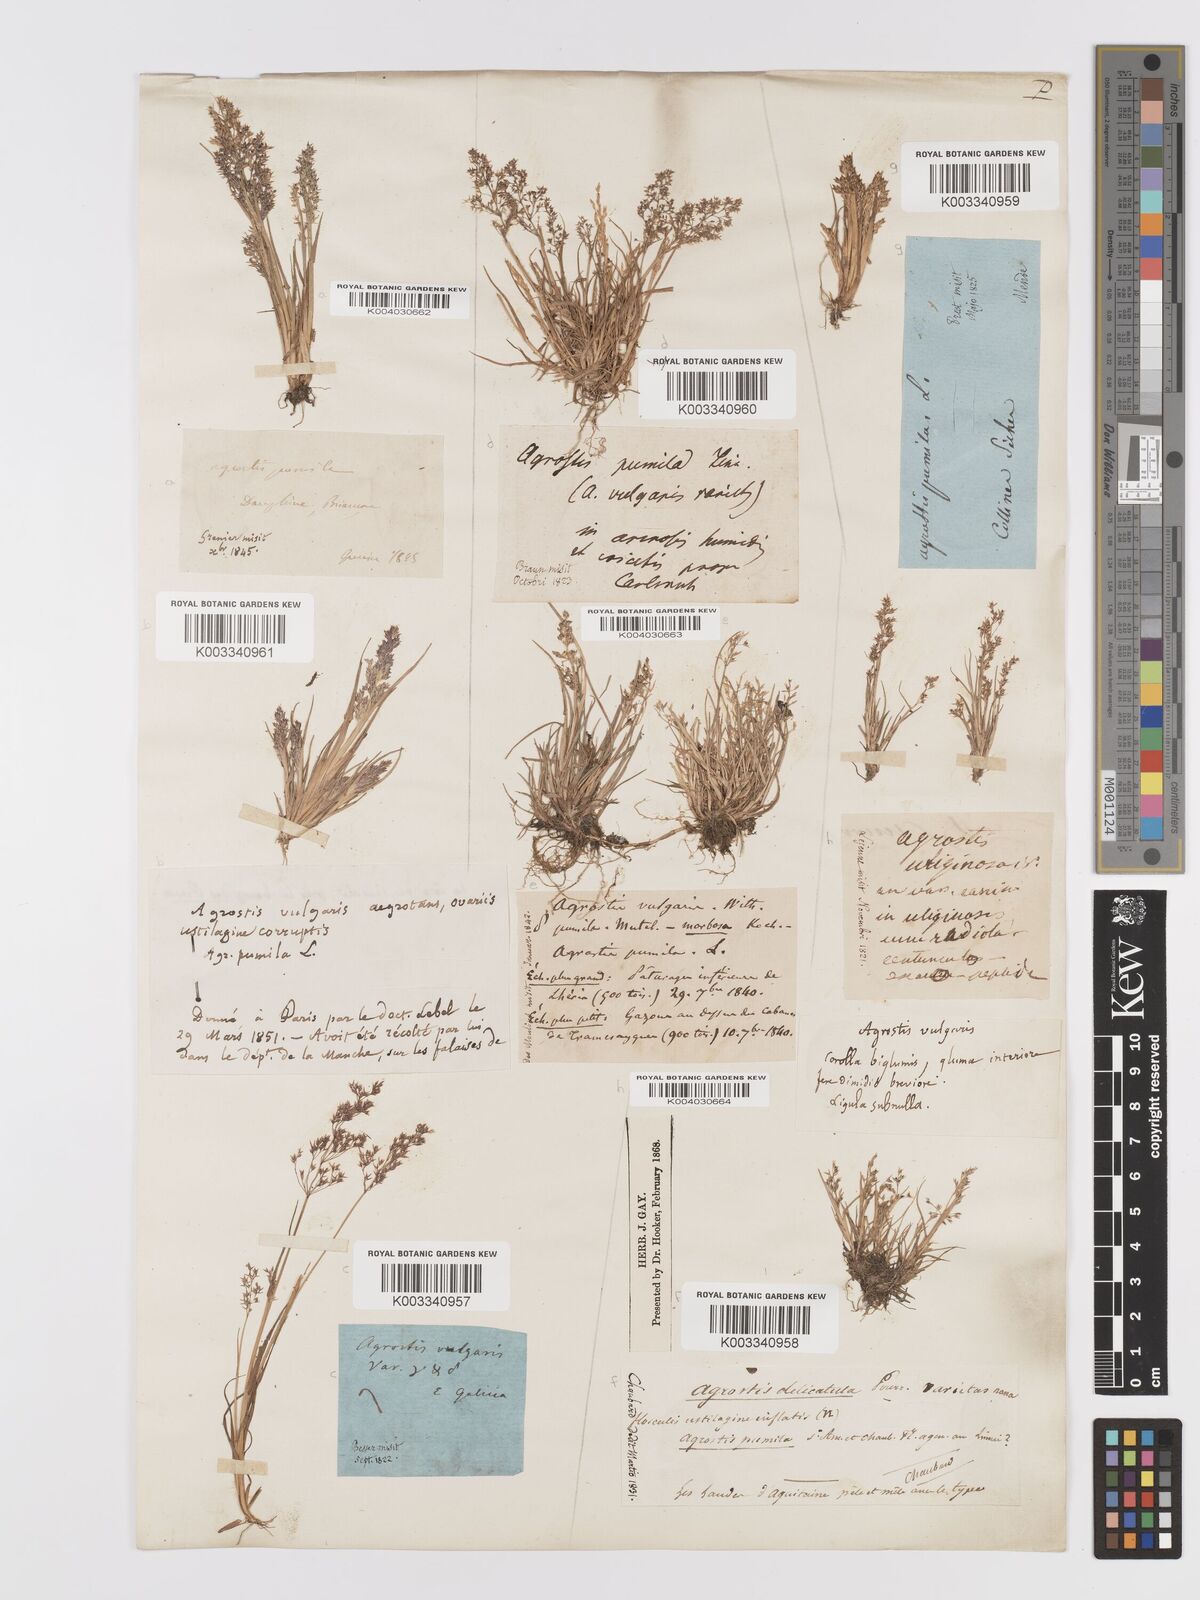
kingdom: Plantae
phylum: Tracheophyta
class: Liliopsida
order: Poales
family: Poaceae
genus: Agrostis
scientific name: Agrostis capillaris
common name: Colonial bentgrass
